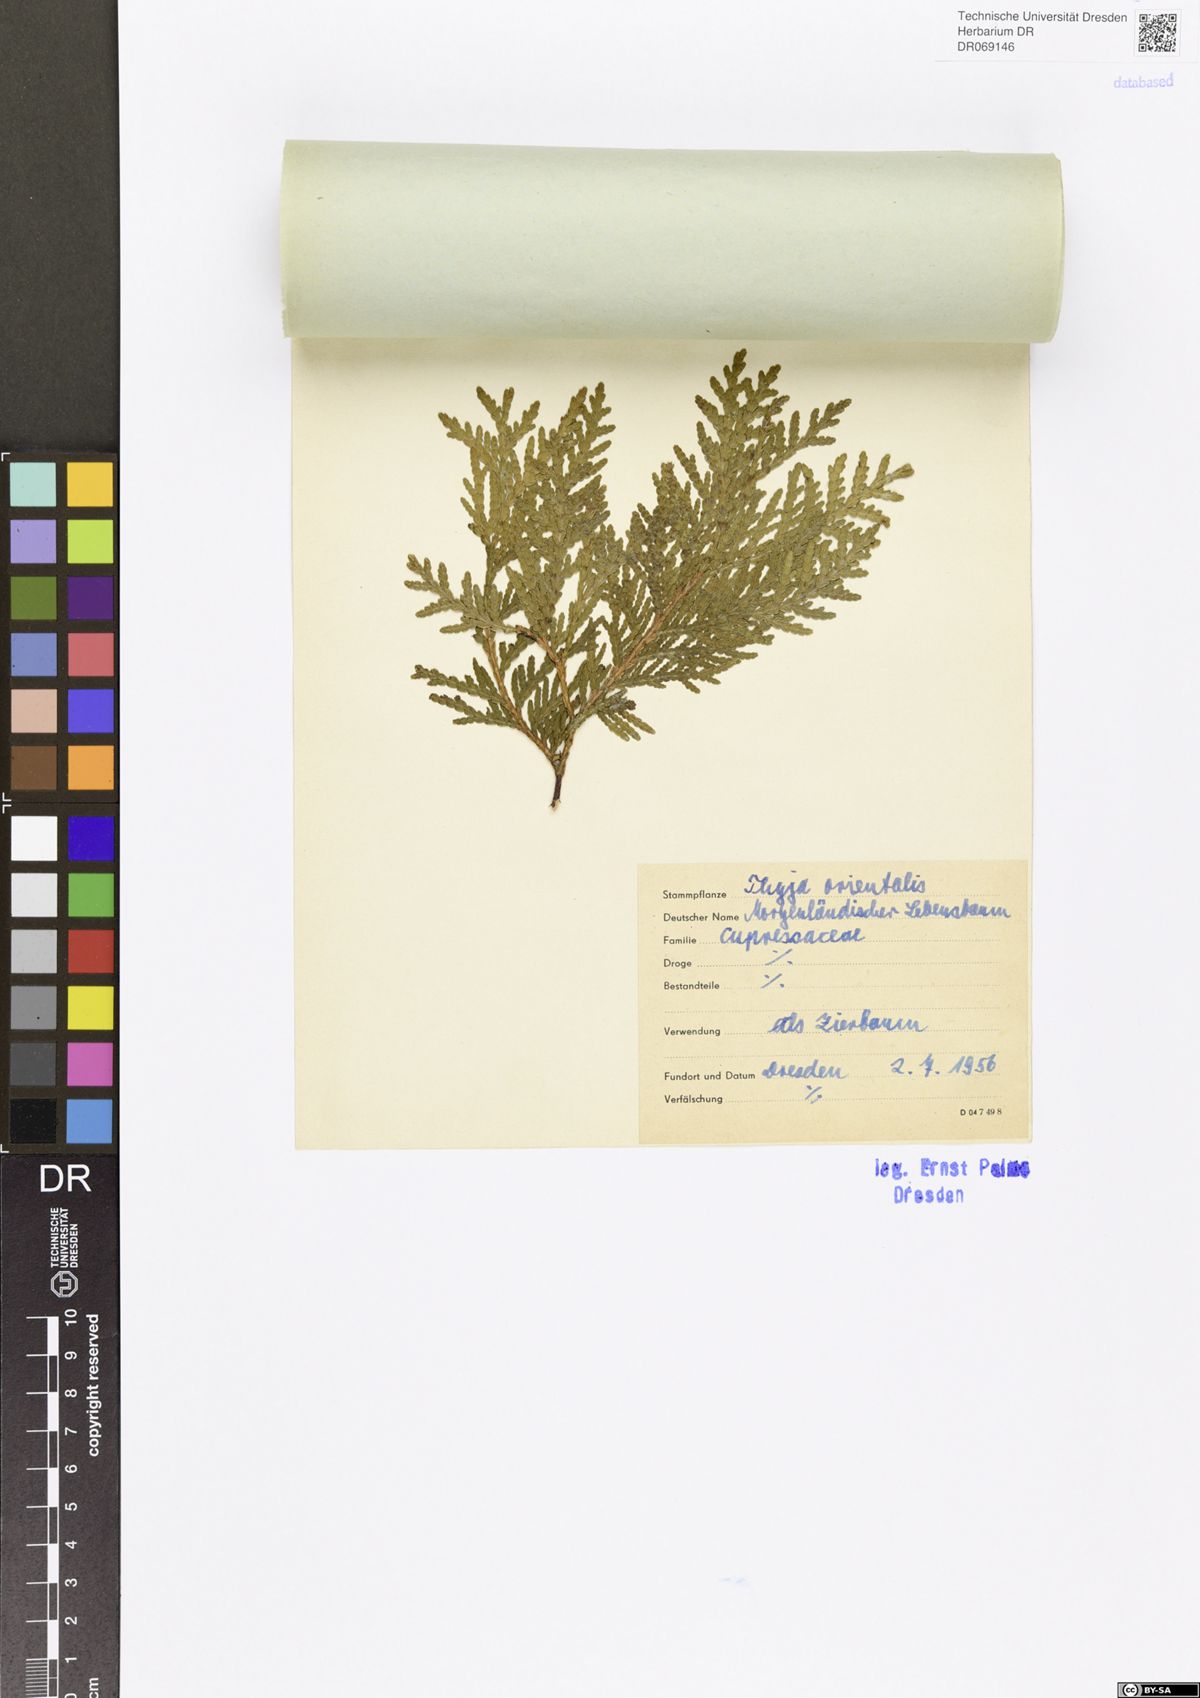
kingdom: Plantae
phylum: Tracheophyta
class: Pinopsida
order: Pinales
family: Cupressaceae
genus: Platycladus
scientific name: Platycladus orientalis
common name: Chinese thuja
